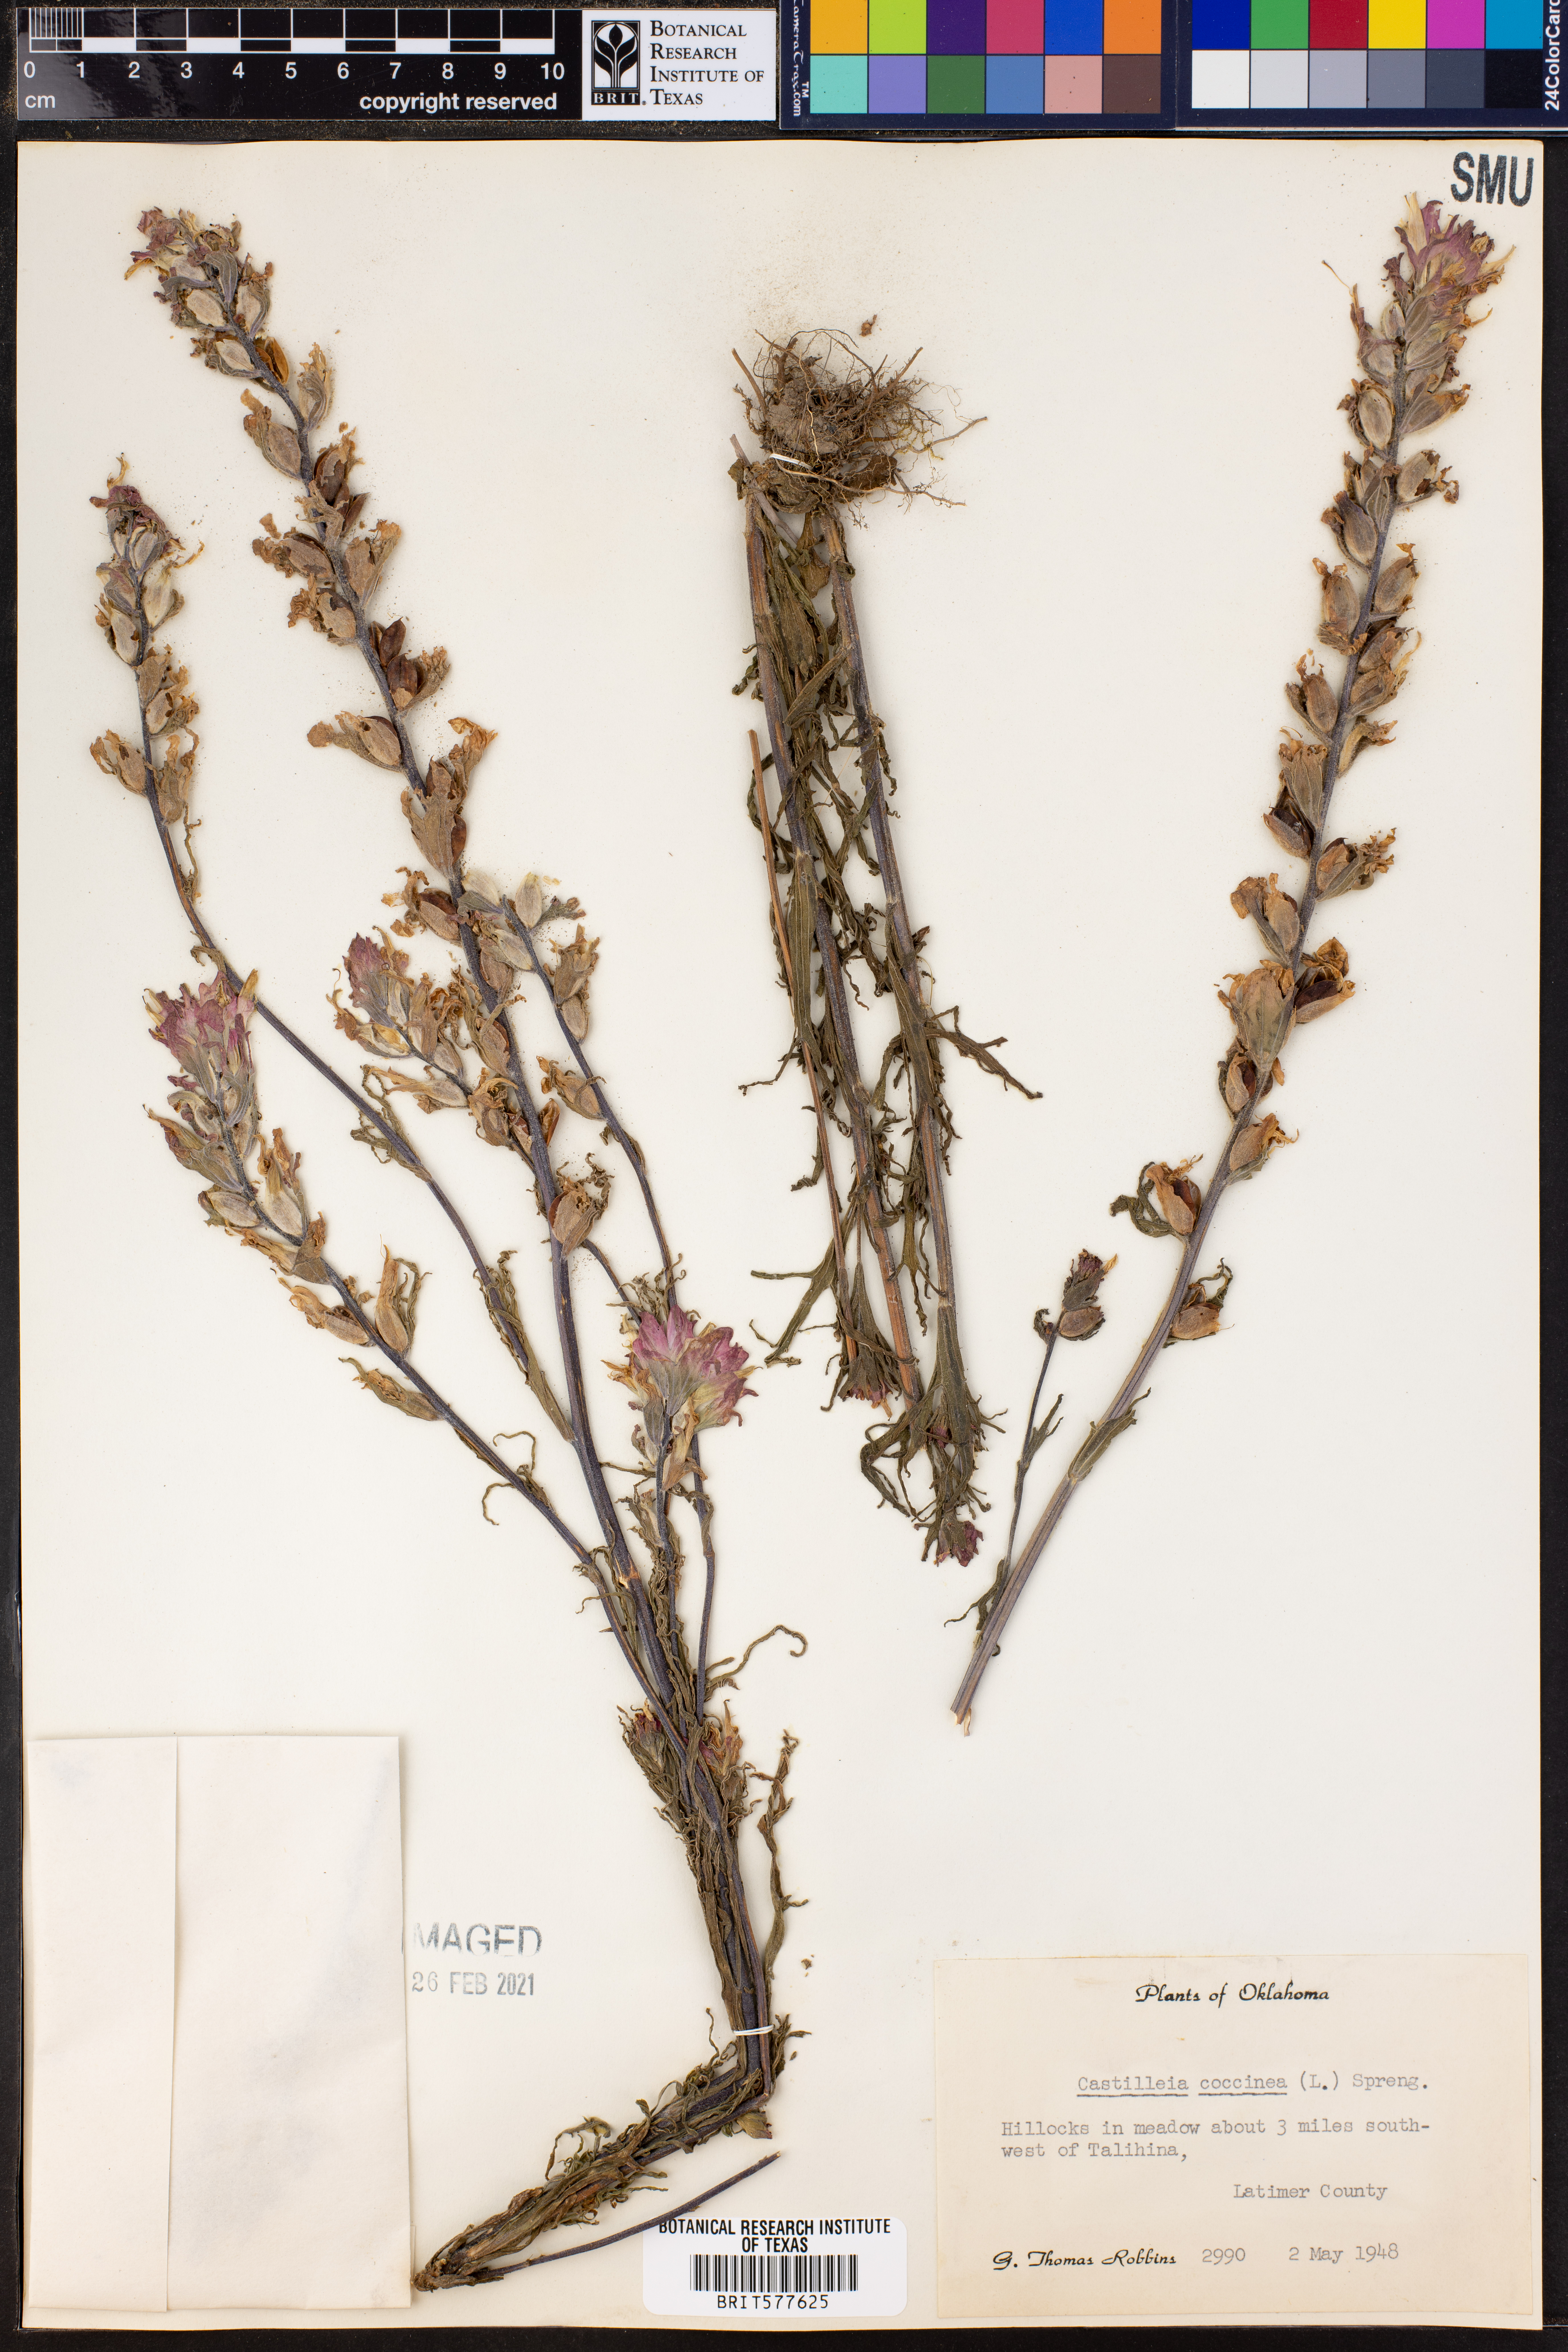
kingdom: Plantae
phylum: Tracheophyta
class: Magnoliopsida
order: Lamiales
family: Orobanchaceae
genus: Castilleja
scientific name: Castilleja coccinea
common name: Scarlet paintbrush
